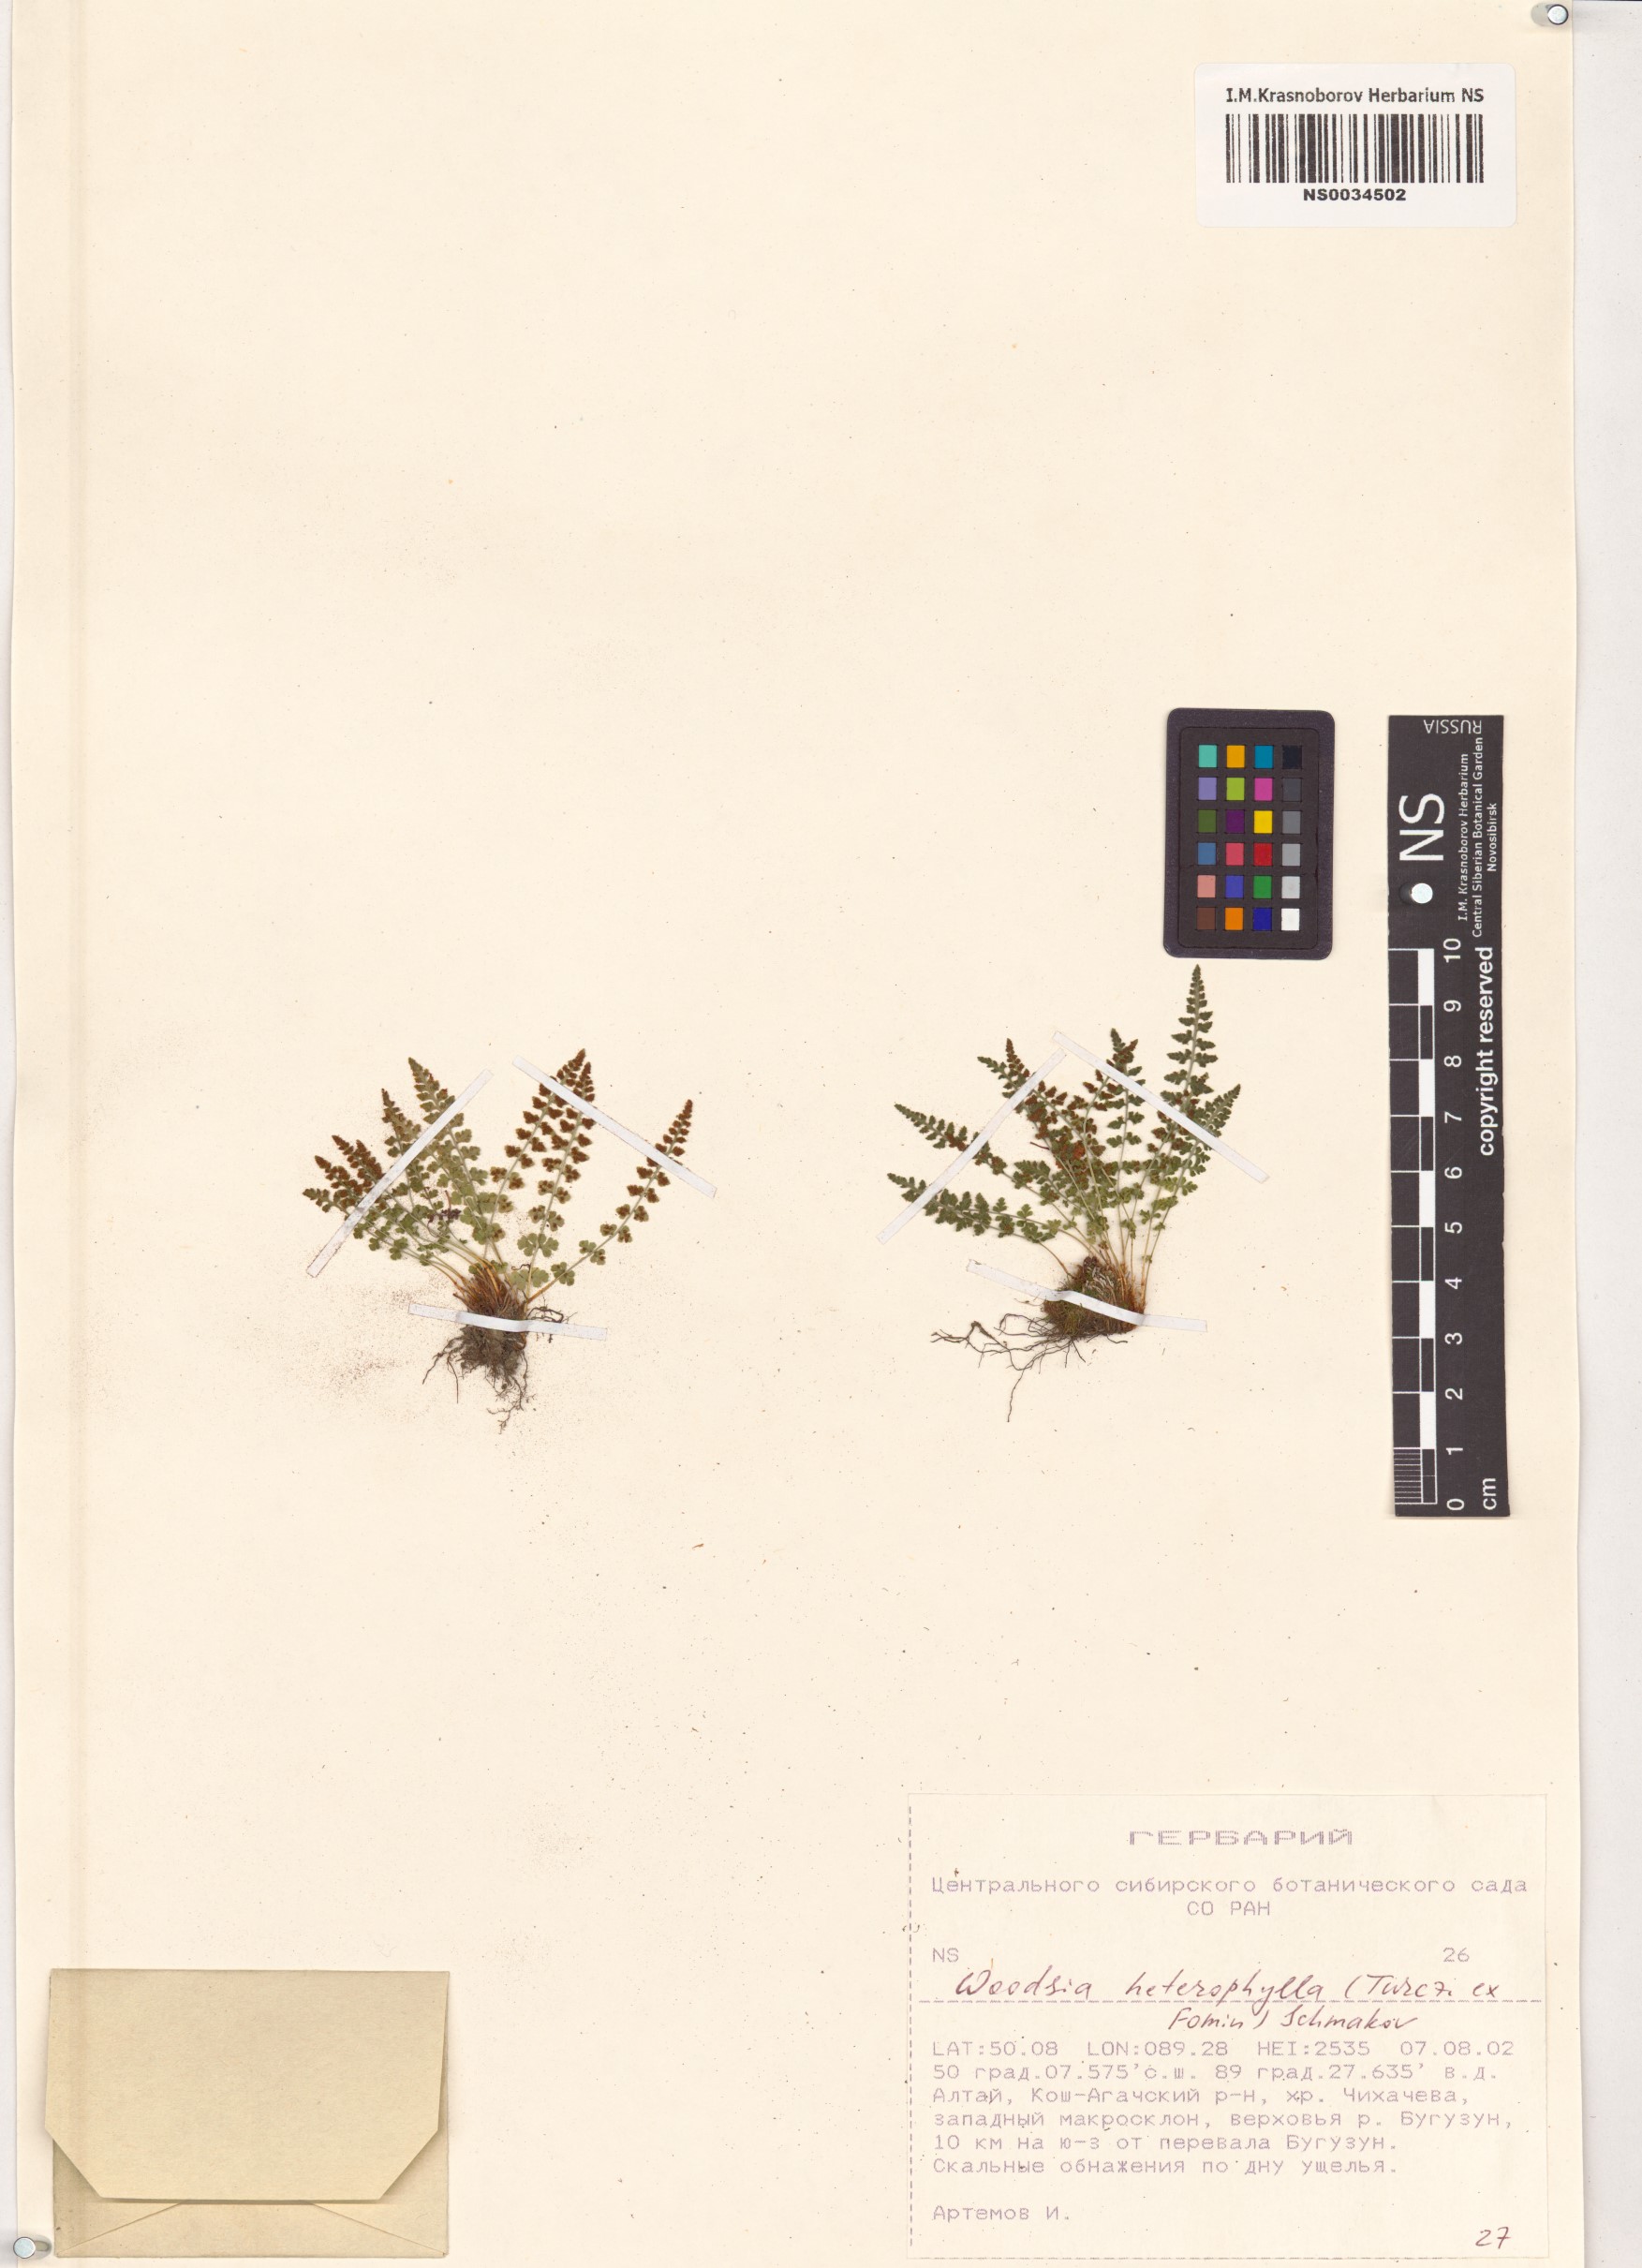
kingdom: Plantae
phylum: Tracheophyta
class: Polypodiopsida
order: Polypodiales
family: Woodsiaceae
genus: Woodsia
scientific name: Woodsia pulchella
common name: Graceful woodsia
